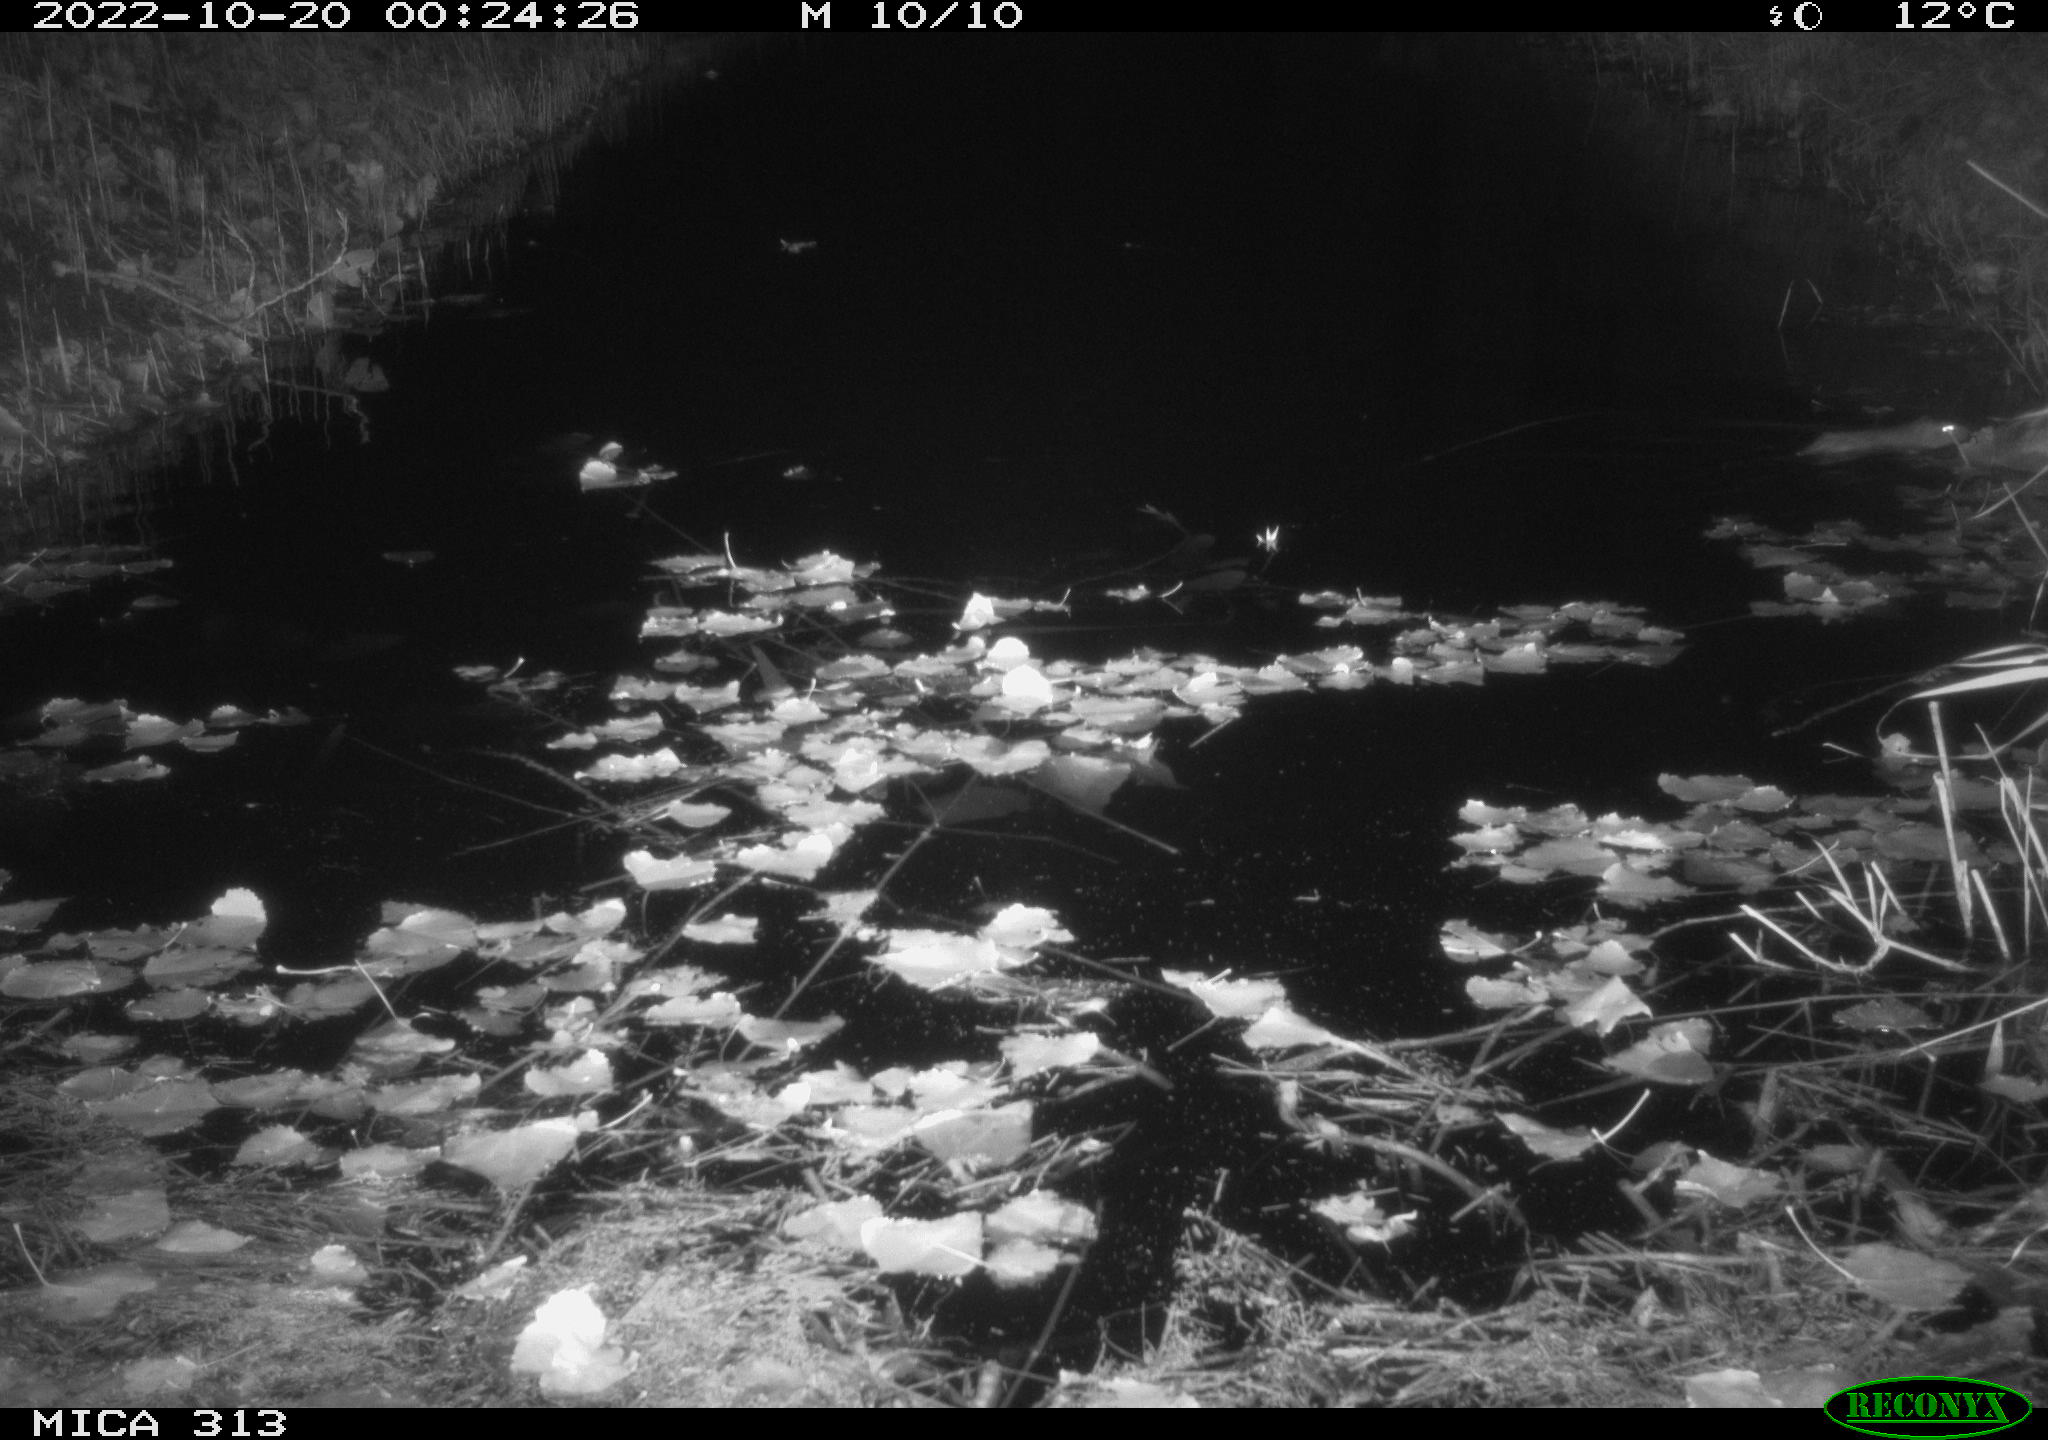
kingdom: Animalia
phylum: Chordata
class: Mammalia
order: Rodentia
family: Muridae
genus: Rattus
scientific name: Rattus norvegicus
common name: Brown rat
